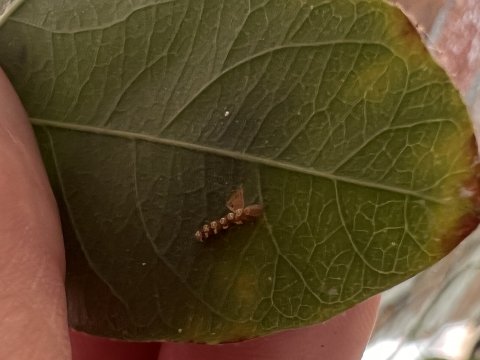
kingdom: Animalia
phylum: Arthropoda
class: Insecta
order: Lepidoptera
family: Nymphalidae
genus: Dione
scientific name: Dione vanillae
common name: Gulf Fritillary
